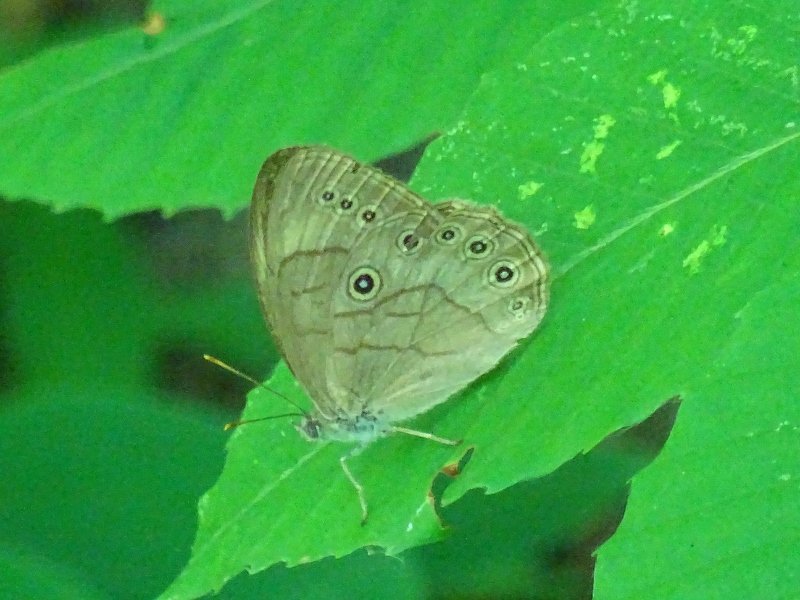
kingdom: Animalia
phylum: Arthropoda
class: Insecta
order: Lepidoptera
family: Nymphalidae
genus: Lethe
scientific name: Lethe eurydice
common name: Appalachian Eyed Brown
